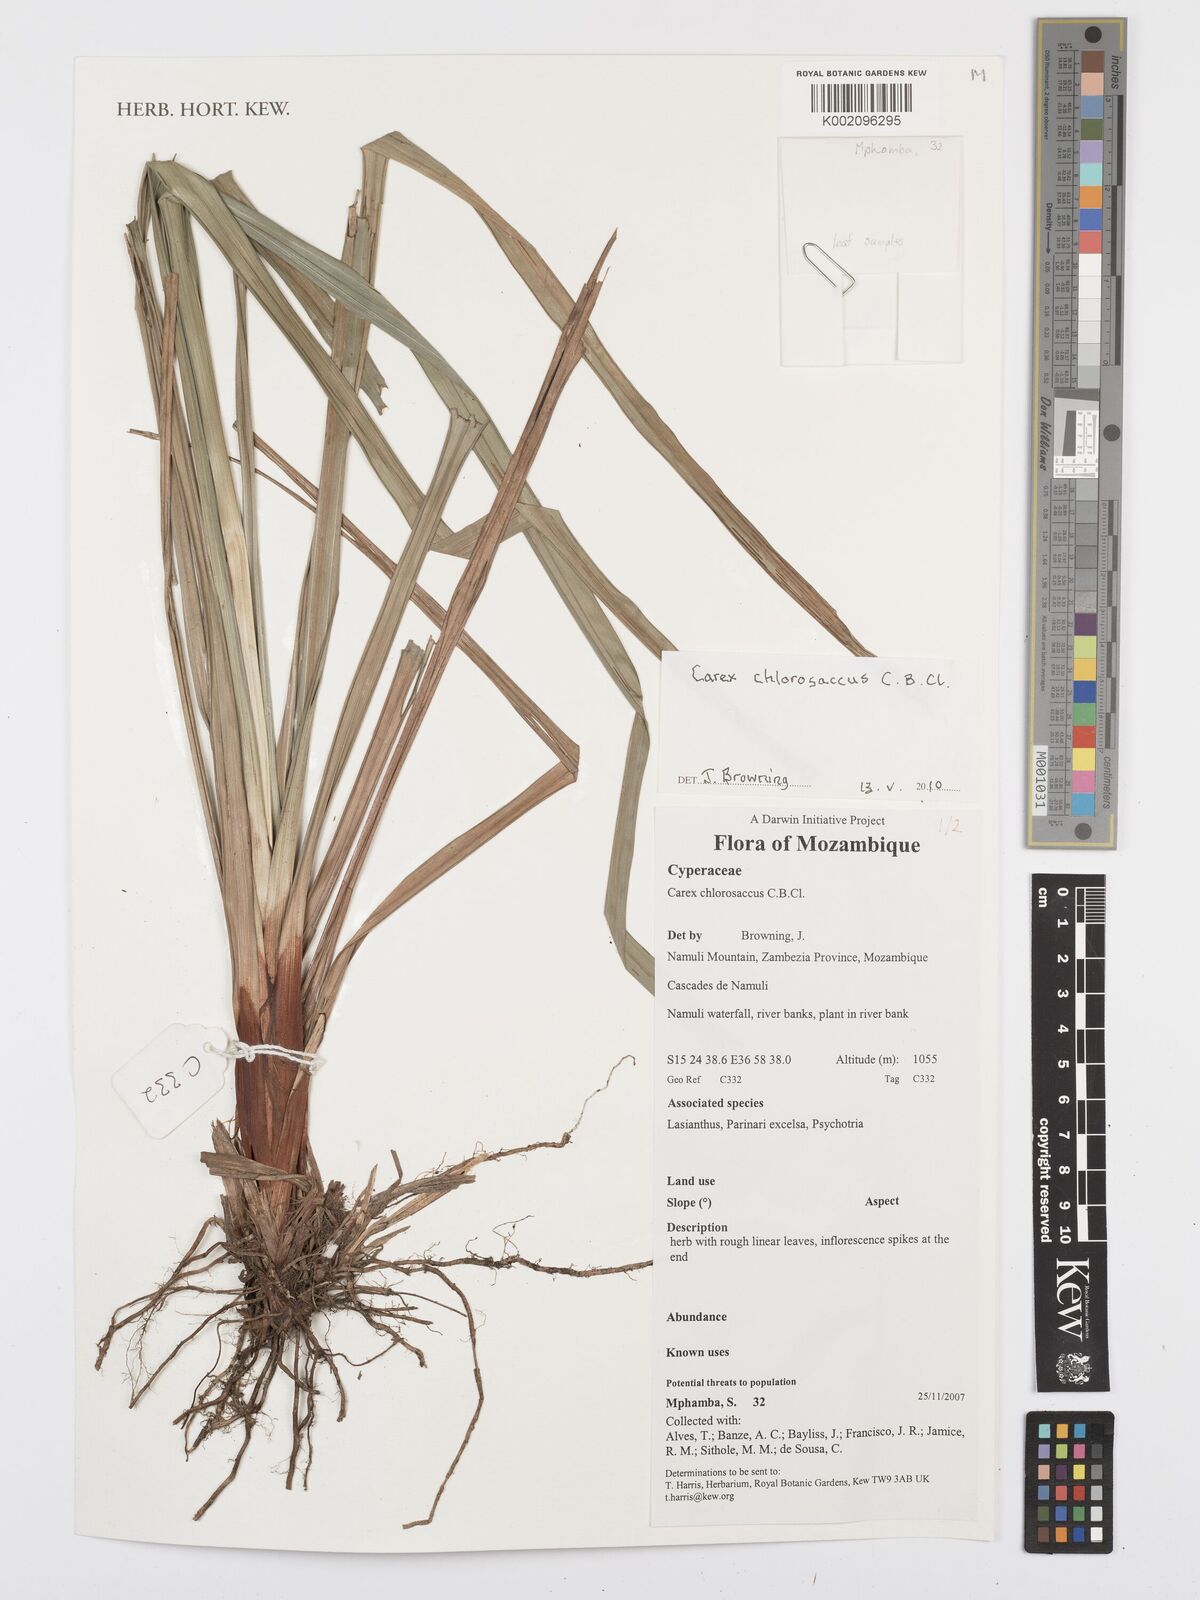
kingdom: Plantae
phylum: Tracheophyta
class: Liliopsida
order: Poales
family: Cyperaceae
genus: Carex
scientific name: Carex chlorosaccus
